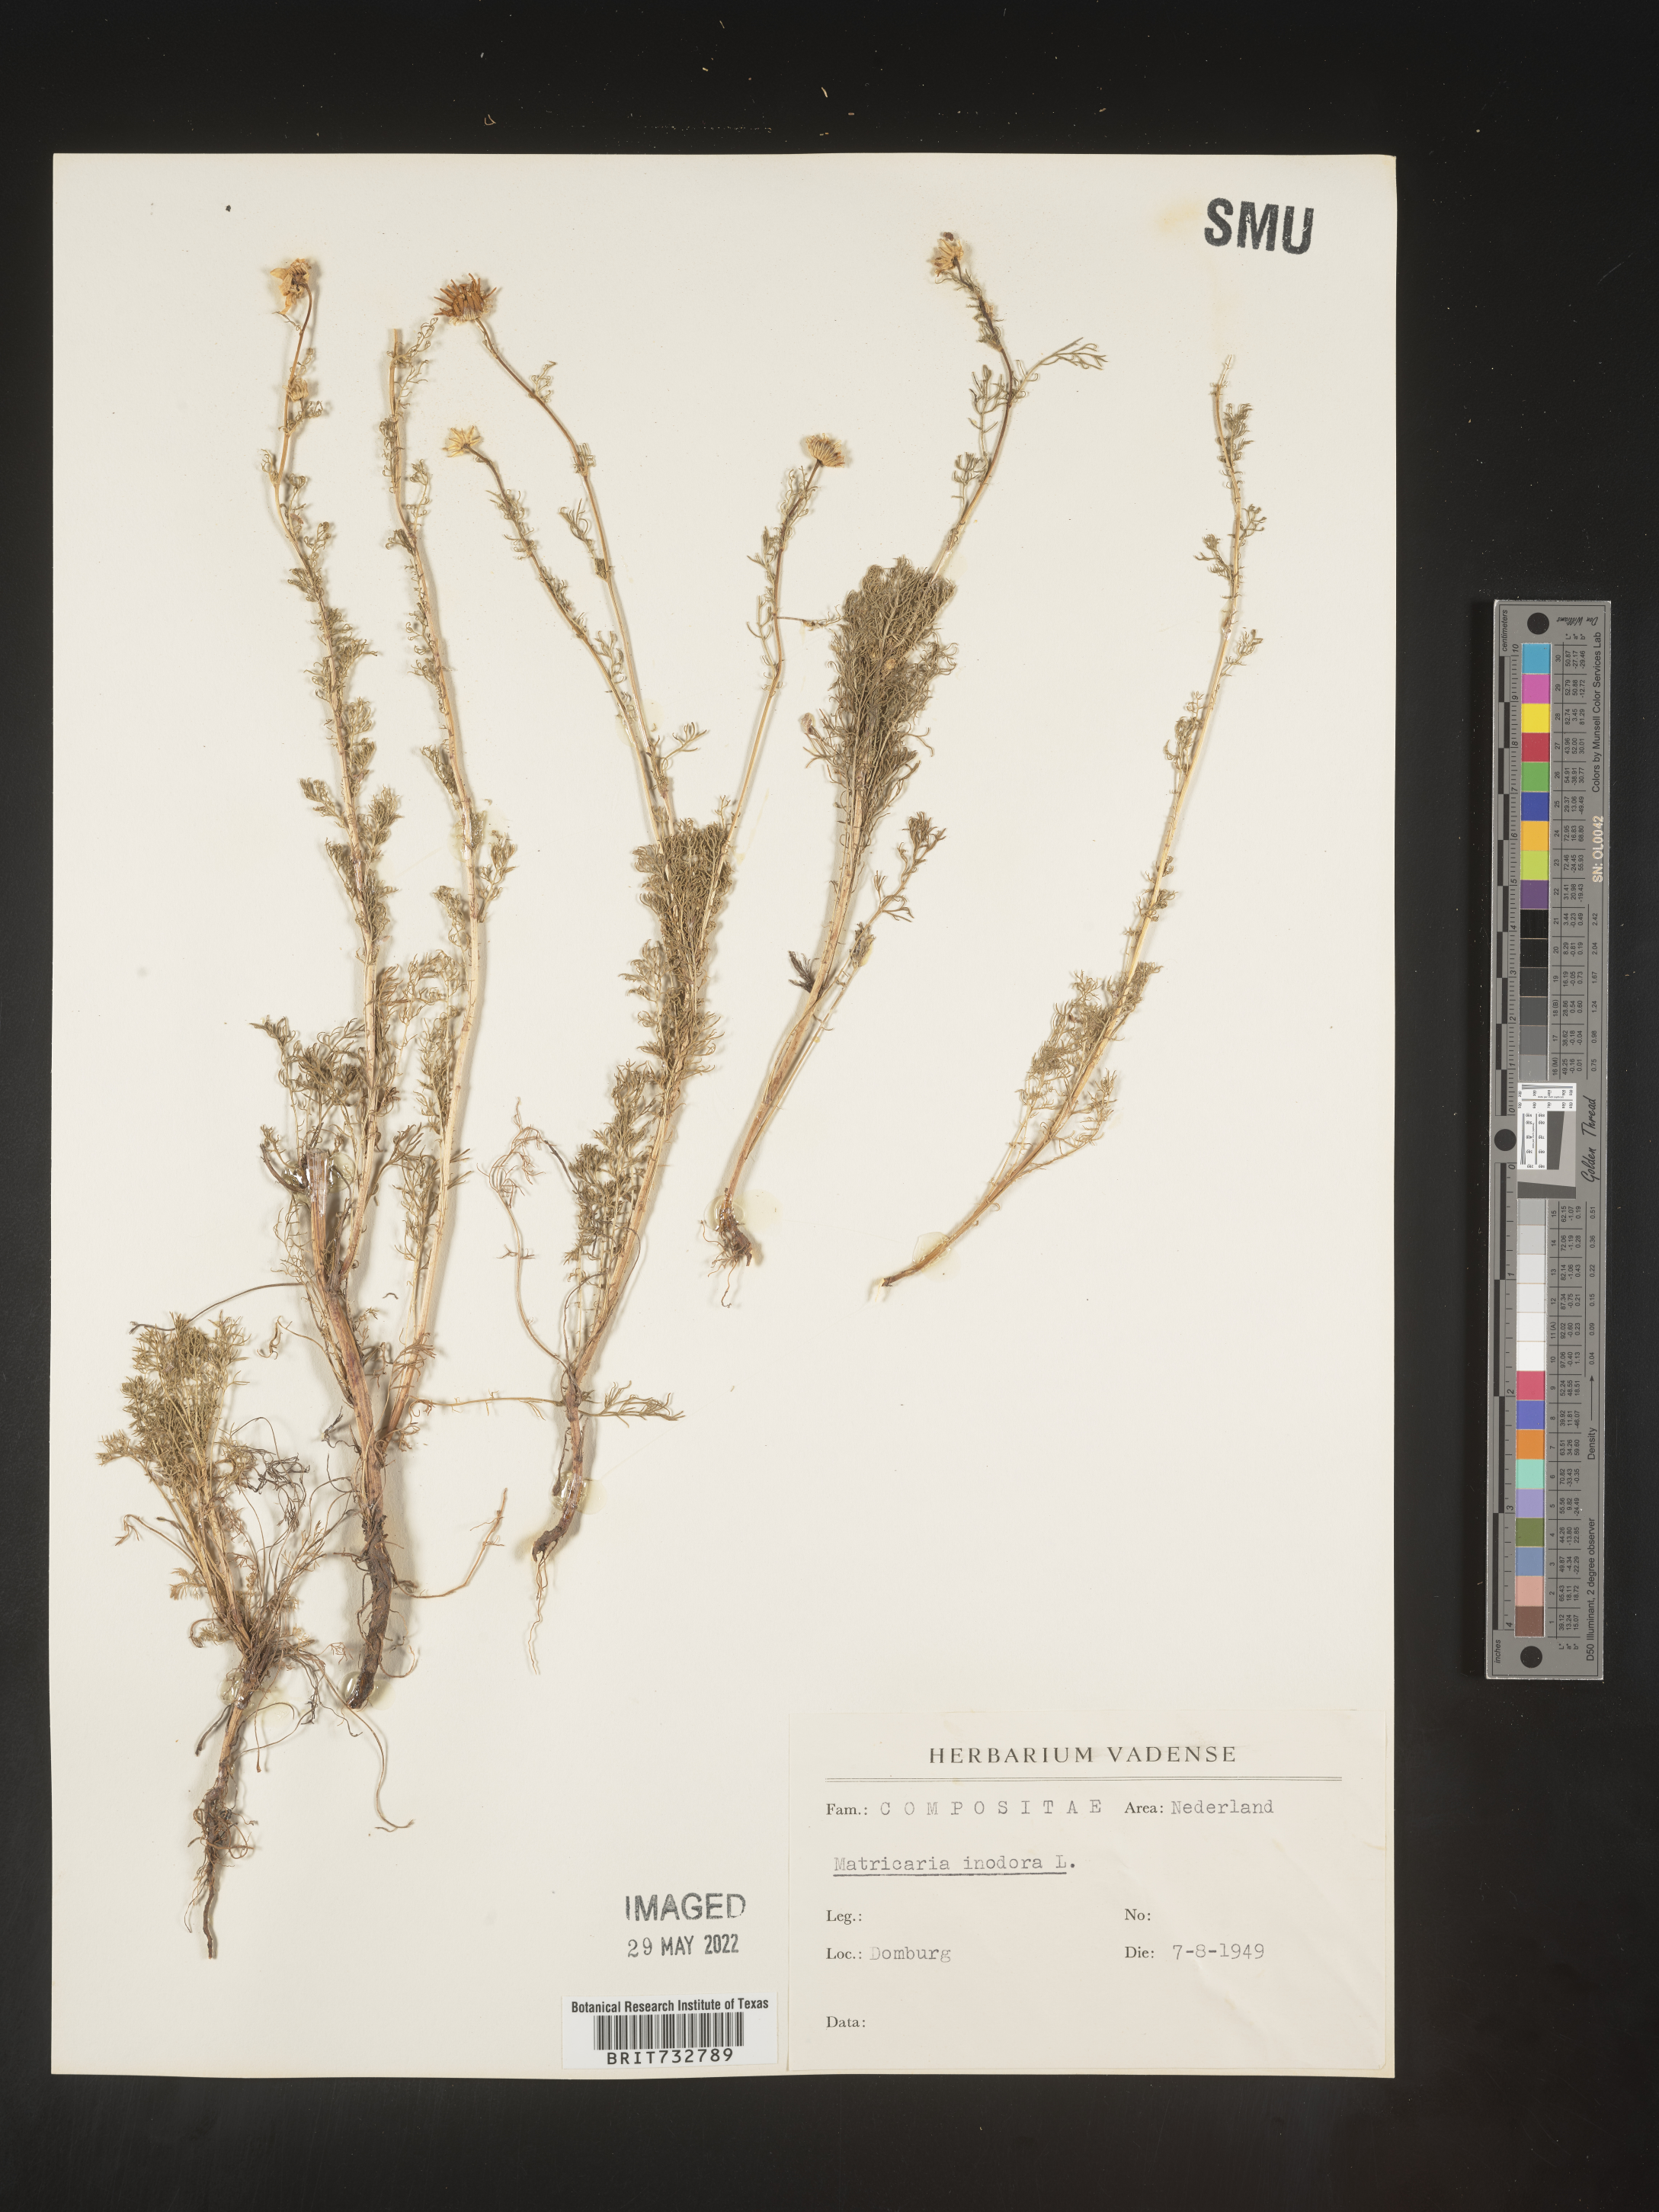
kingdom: Plantae
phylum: Tracheophyta
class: Magnoliopsida
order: Asterales
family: Asteraceae
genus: Matricaria
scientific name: Matricaria
